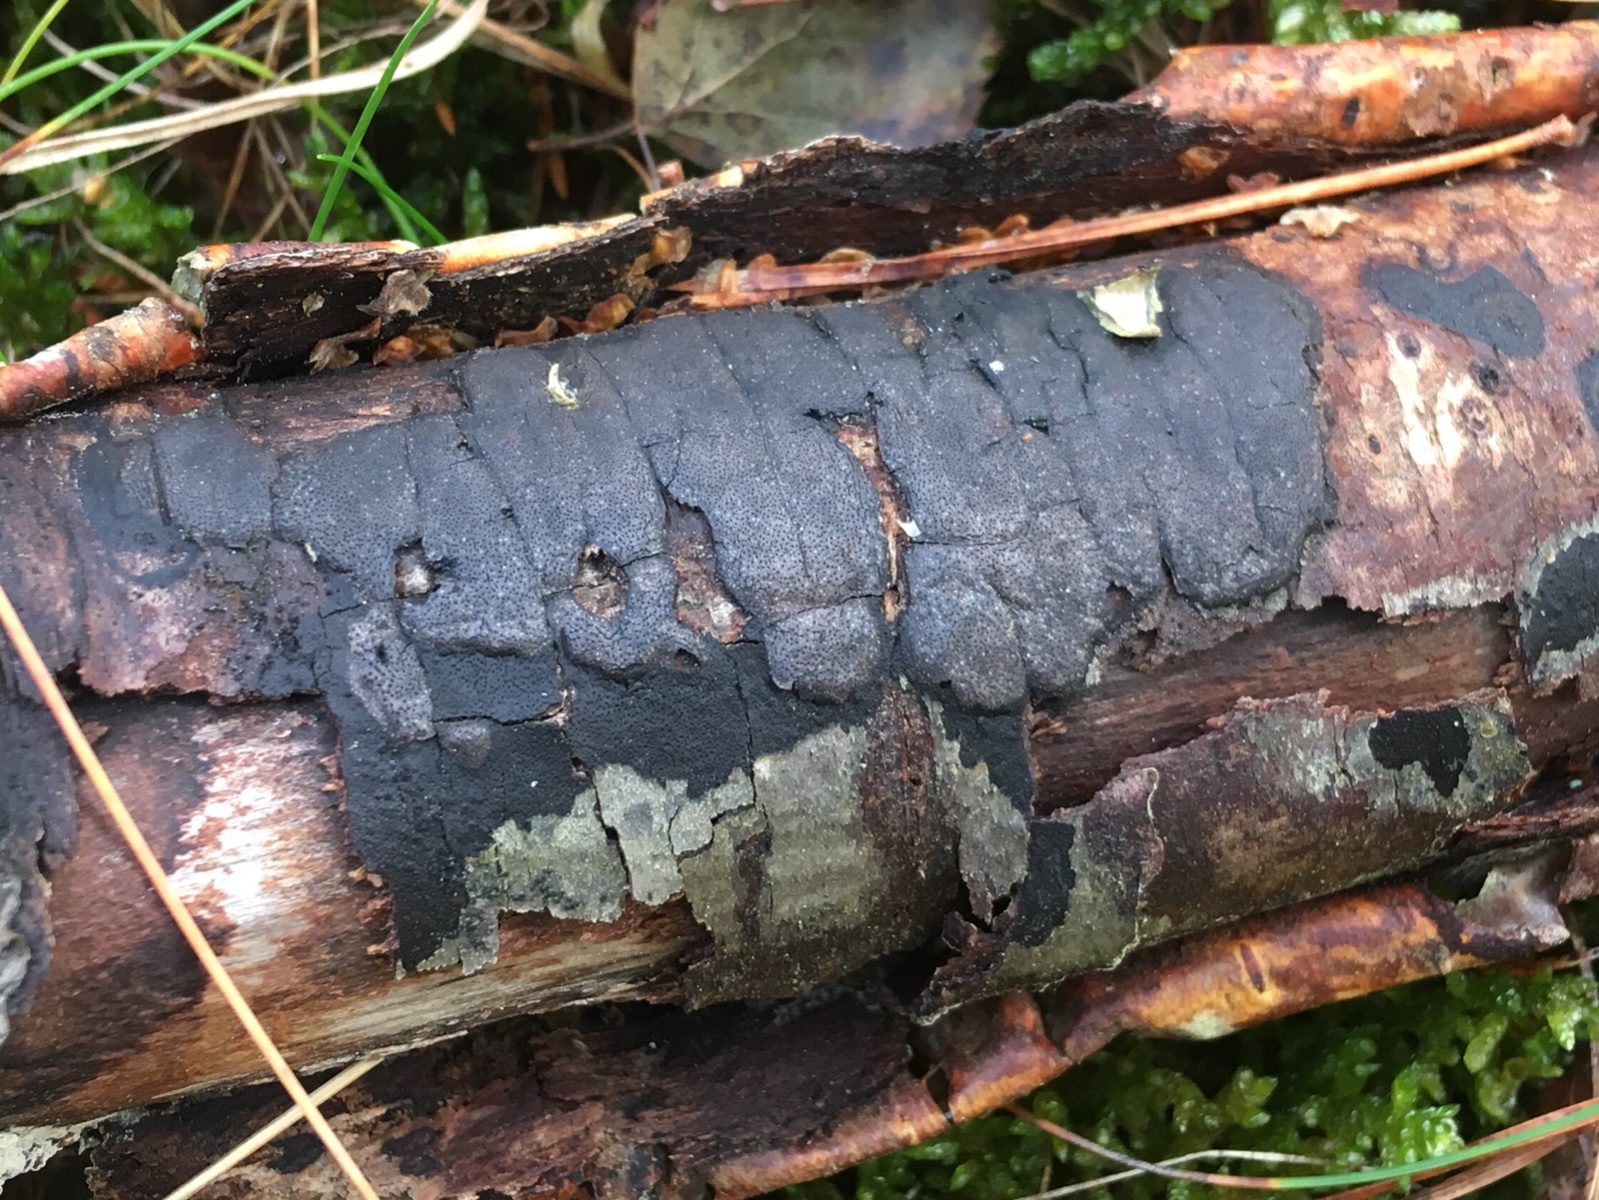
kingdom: Fungi
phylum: Ascomycota
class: Sordariomycetes
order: Xylariales
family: Diatrypaceae
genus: Diatrype
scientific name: Diatrype
